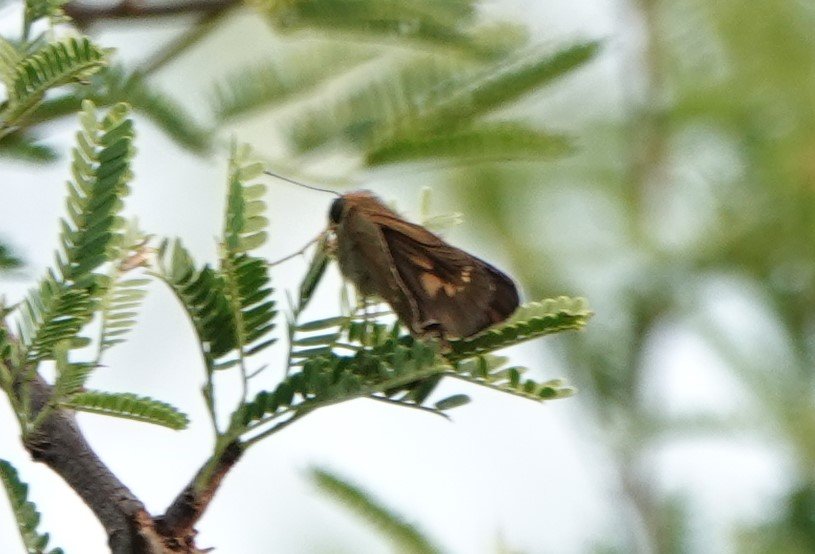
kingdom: Animalia
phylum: Arthropoda
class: Insecta
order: Lepidoptera
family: Hesperiidae
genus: Turesis
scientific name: Turesis lucas
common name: Purple-washed Skipper
